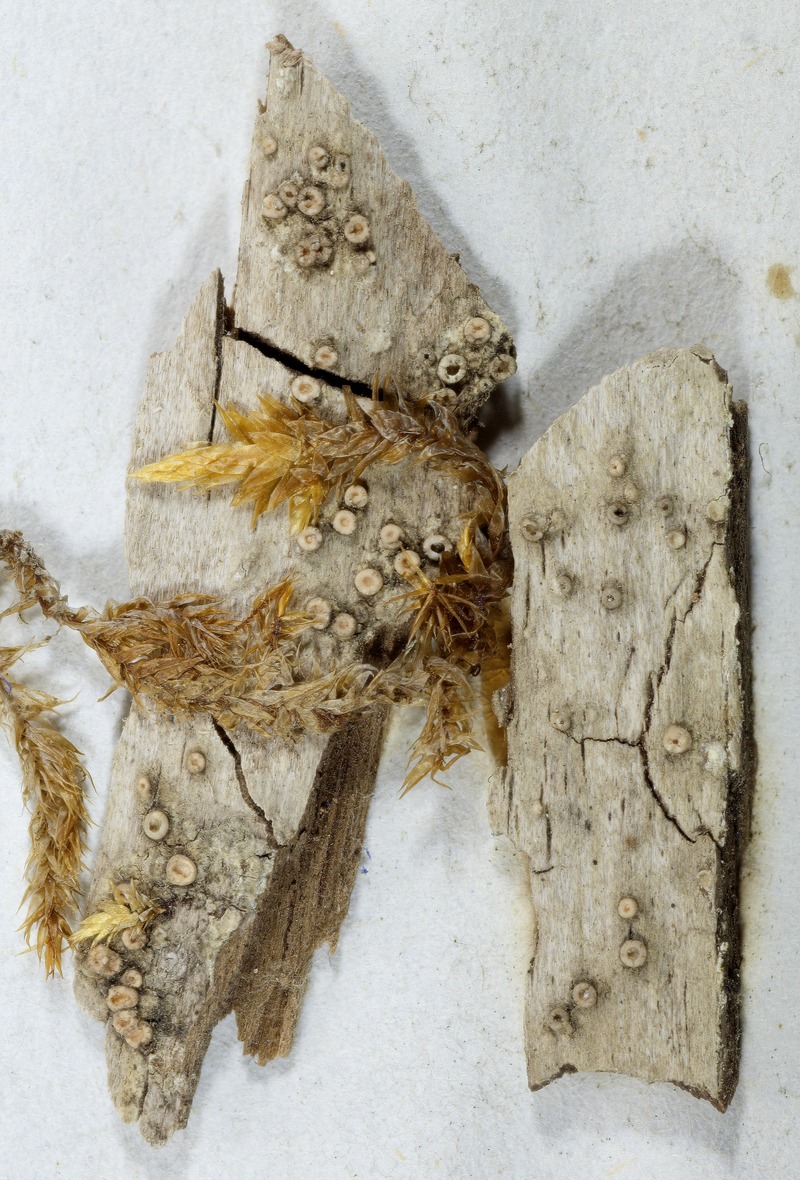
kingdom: Fungi
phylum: Ascomycota
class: Orbiliomycetes
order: Orbiliales
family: Orbiliaceae
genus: Habrostictis
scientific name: Habrostictis
